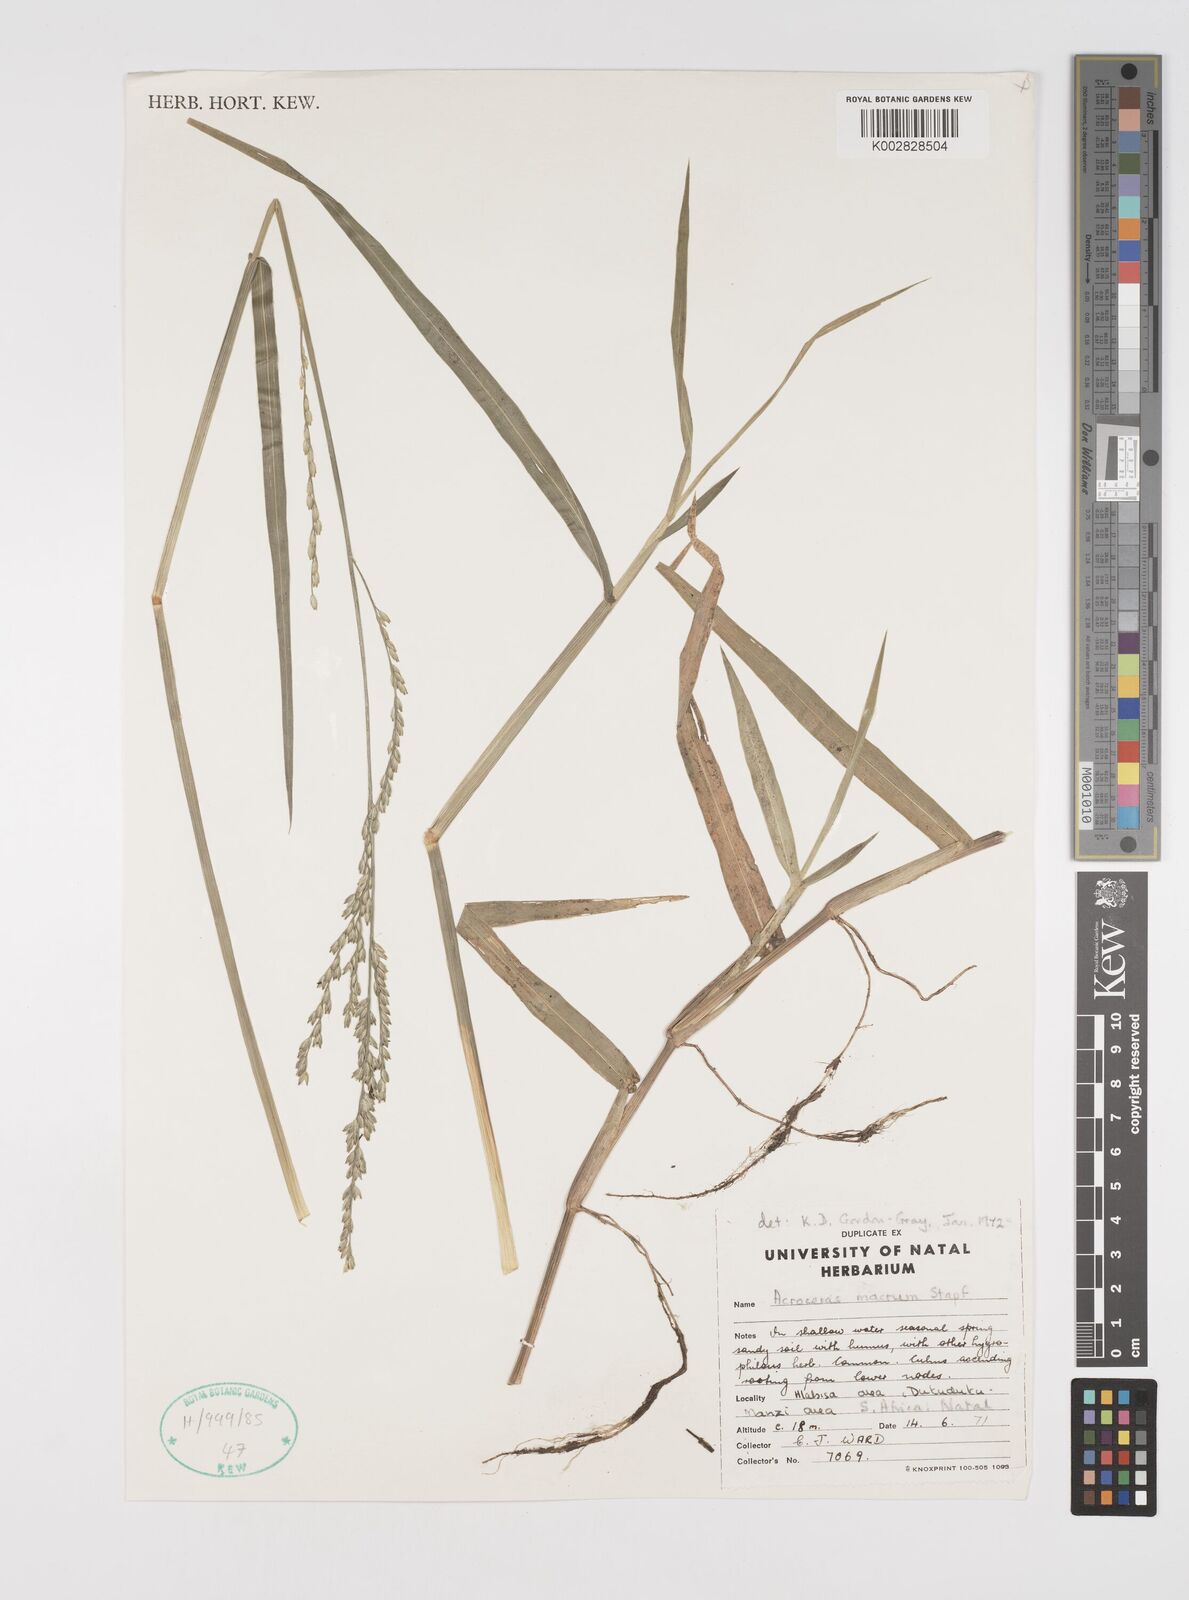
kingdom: Plantae
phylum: Tracheophyta
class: Liliopsida
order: Poales
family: Poaceae
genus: Acroceras
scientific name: Acroceras macrum
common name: Nyl grass
